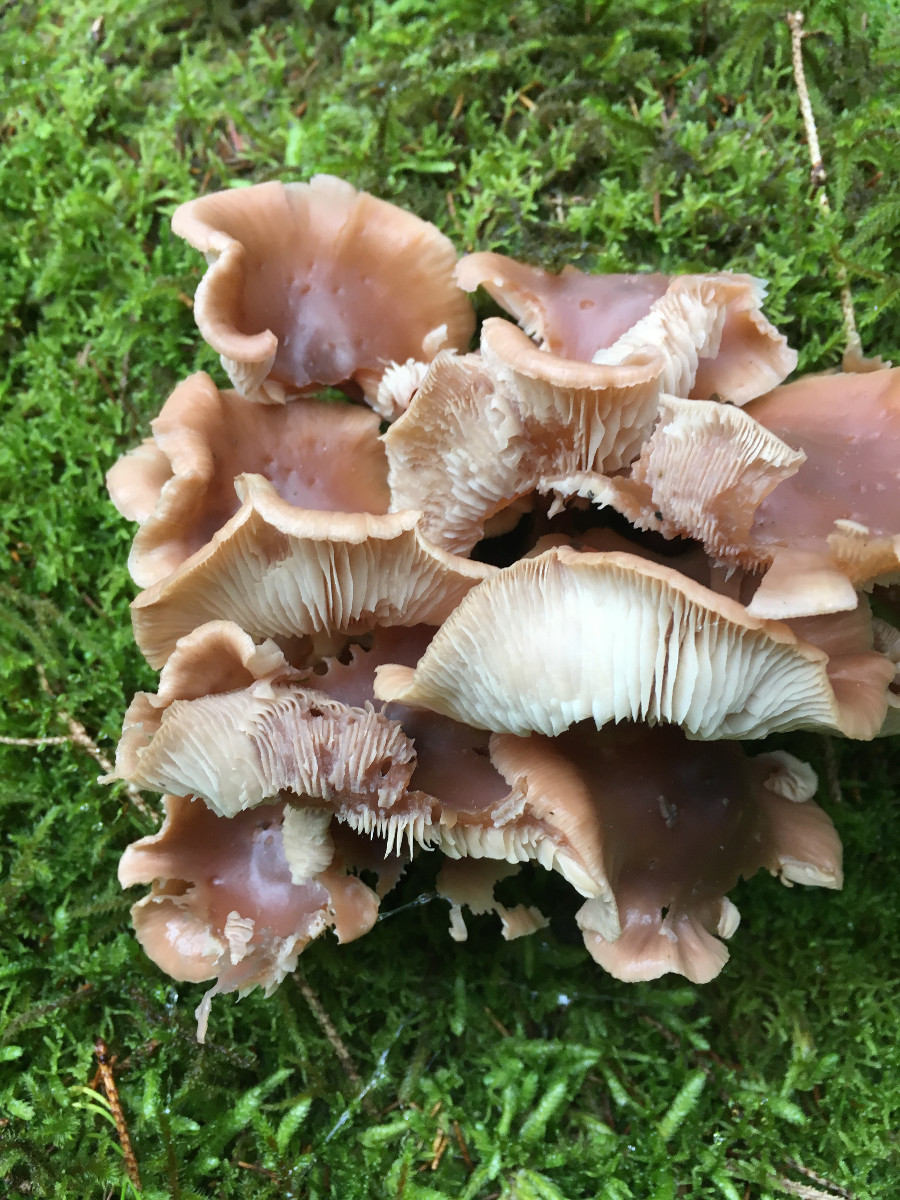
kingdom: Fungi
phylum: Basidiomycota
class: Agaricomycetes
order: Agaricales
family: Omphalotaceae
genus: Connopus
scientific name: Connopus acervatus
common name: tue-fladhat
